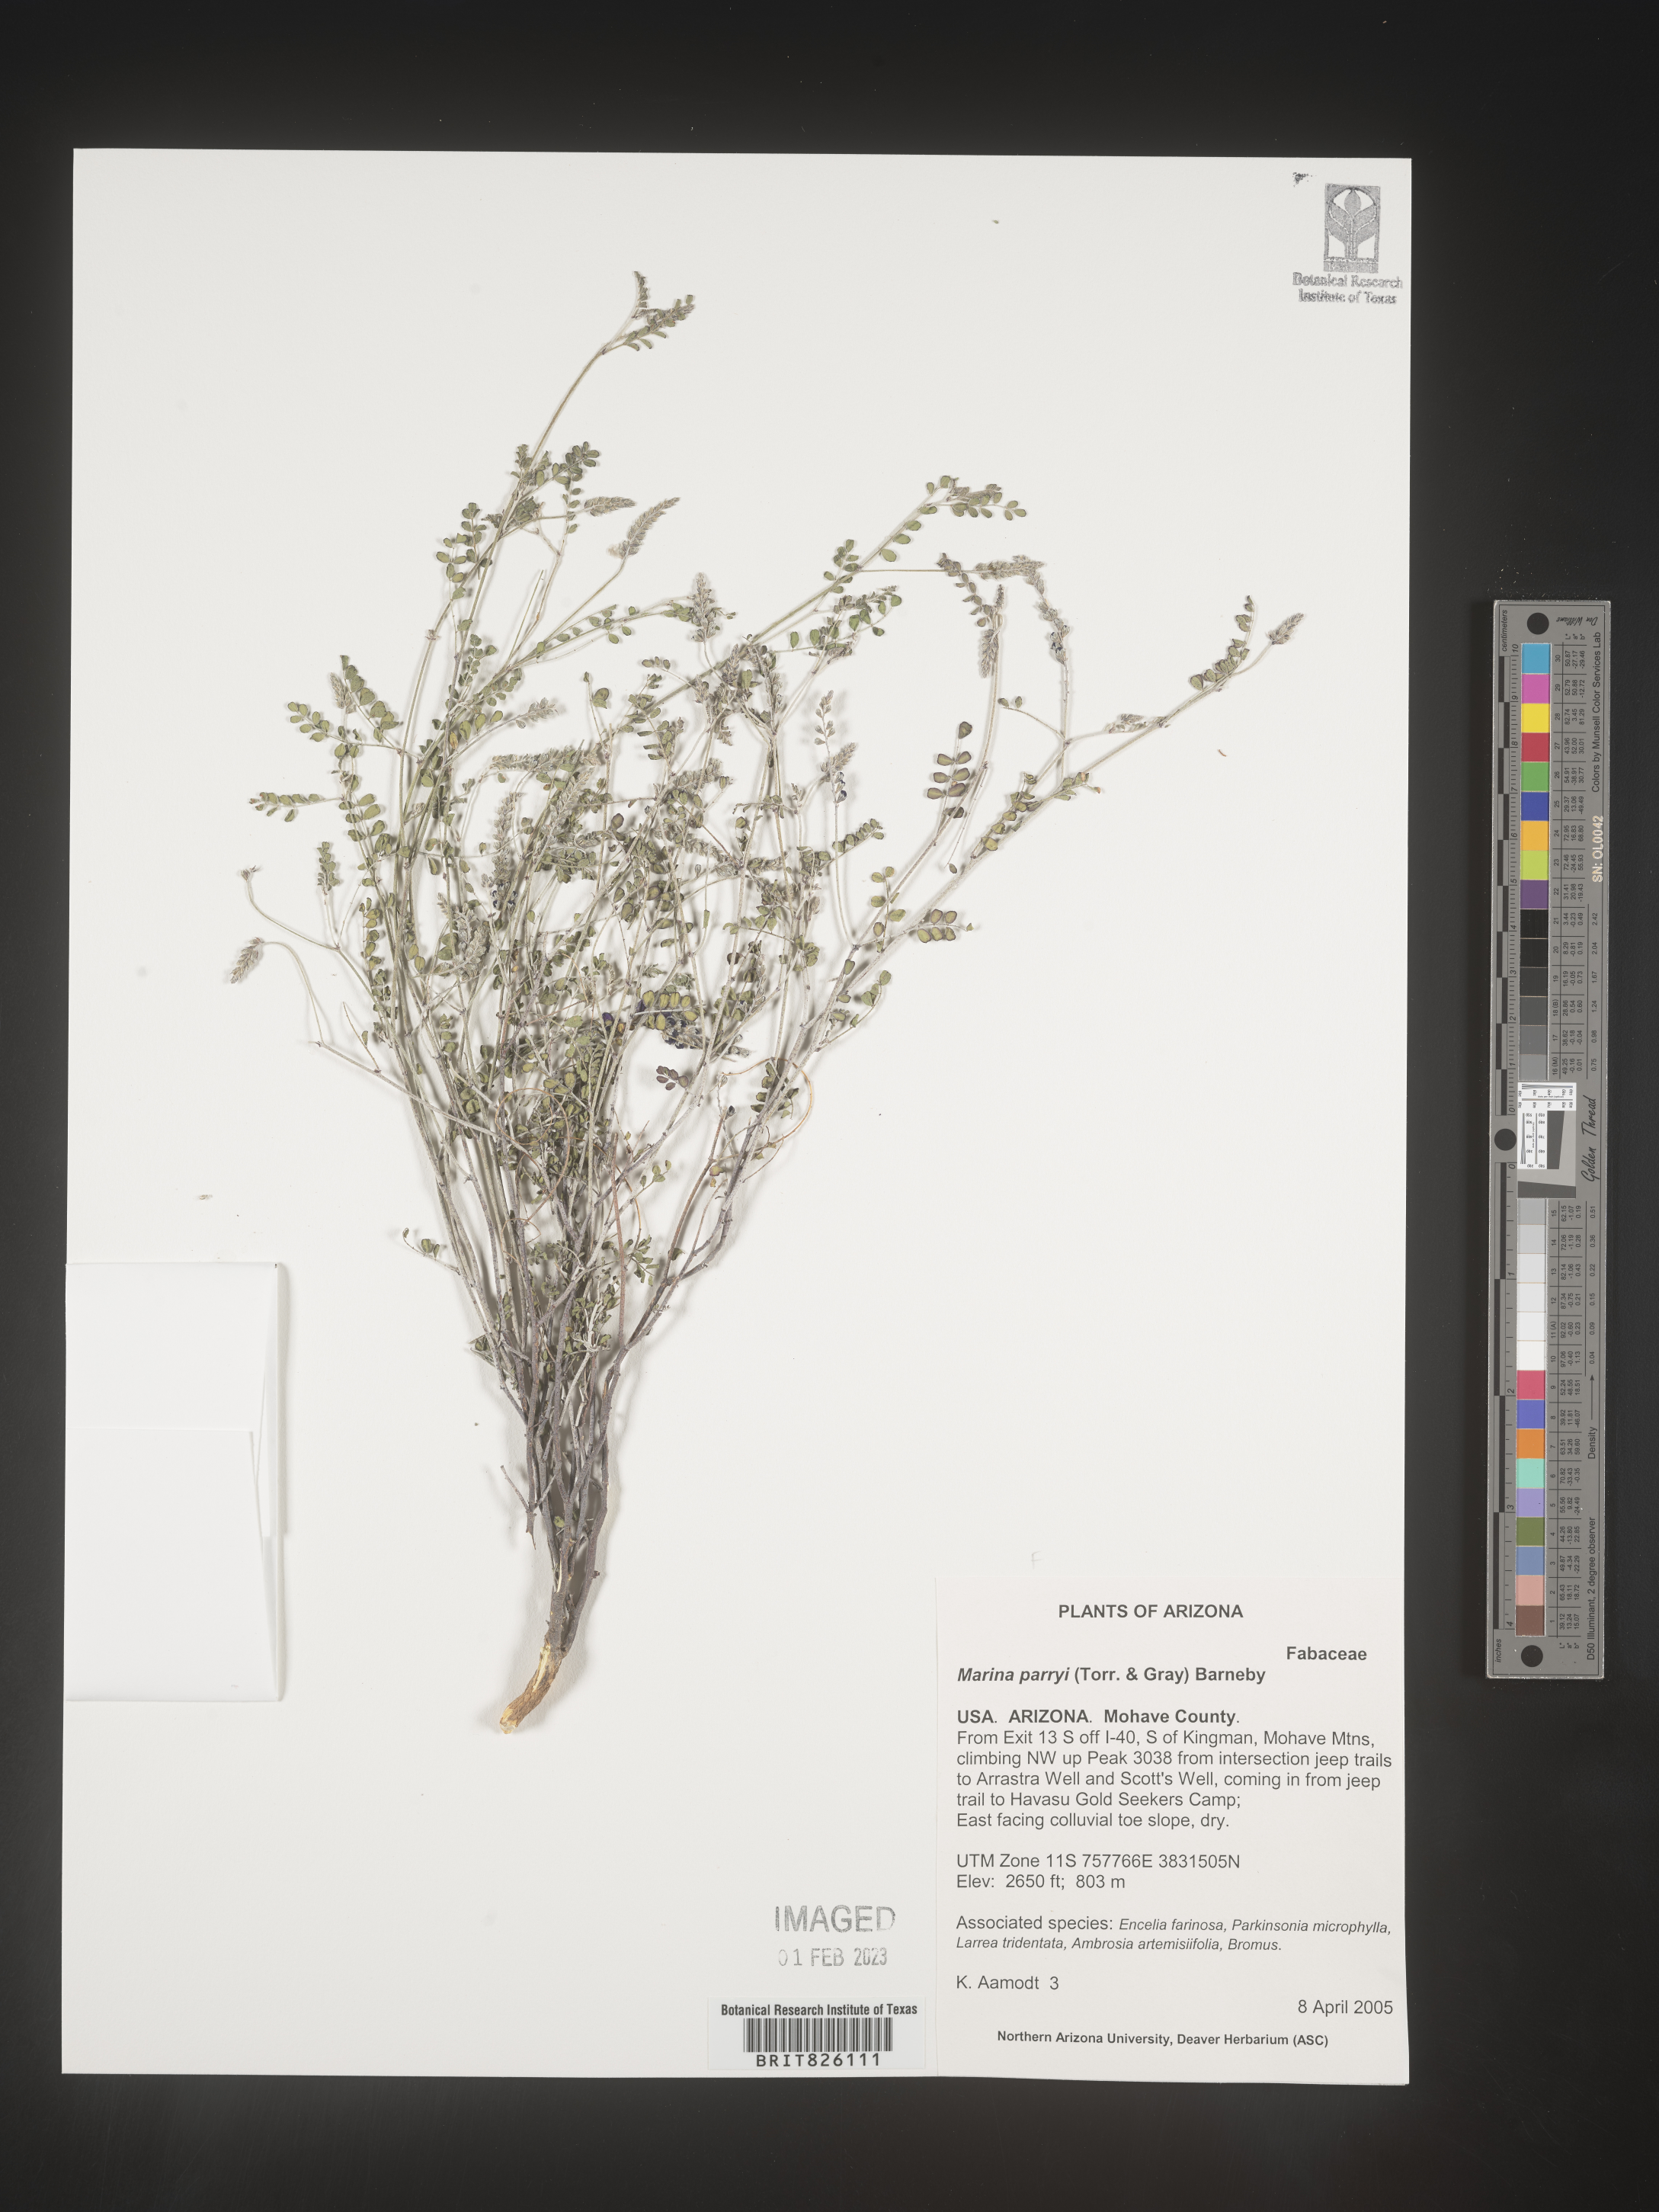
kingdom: Plantae
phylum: Tracheophyta
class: Magnoliopsida
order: Fabales
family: Fabaceae
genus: Marina
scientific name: Marina
